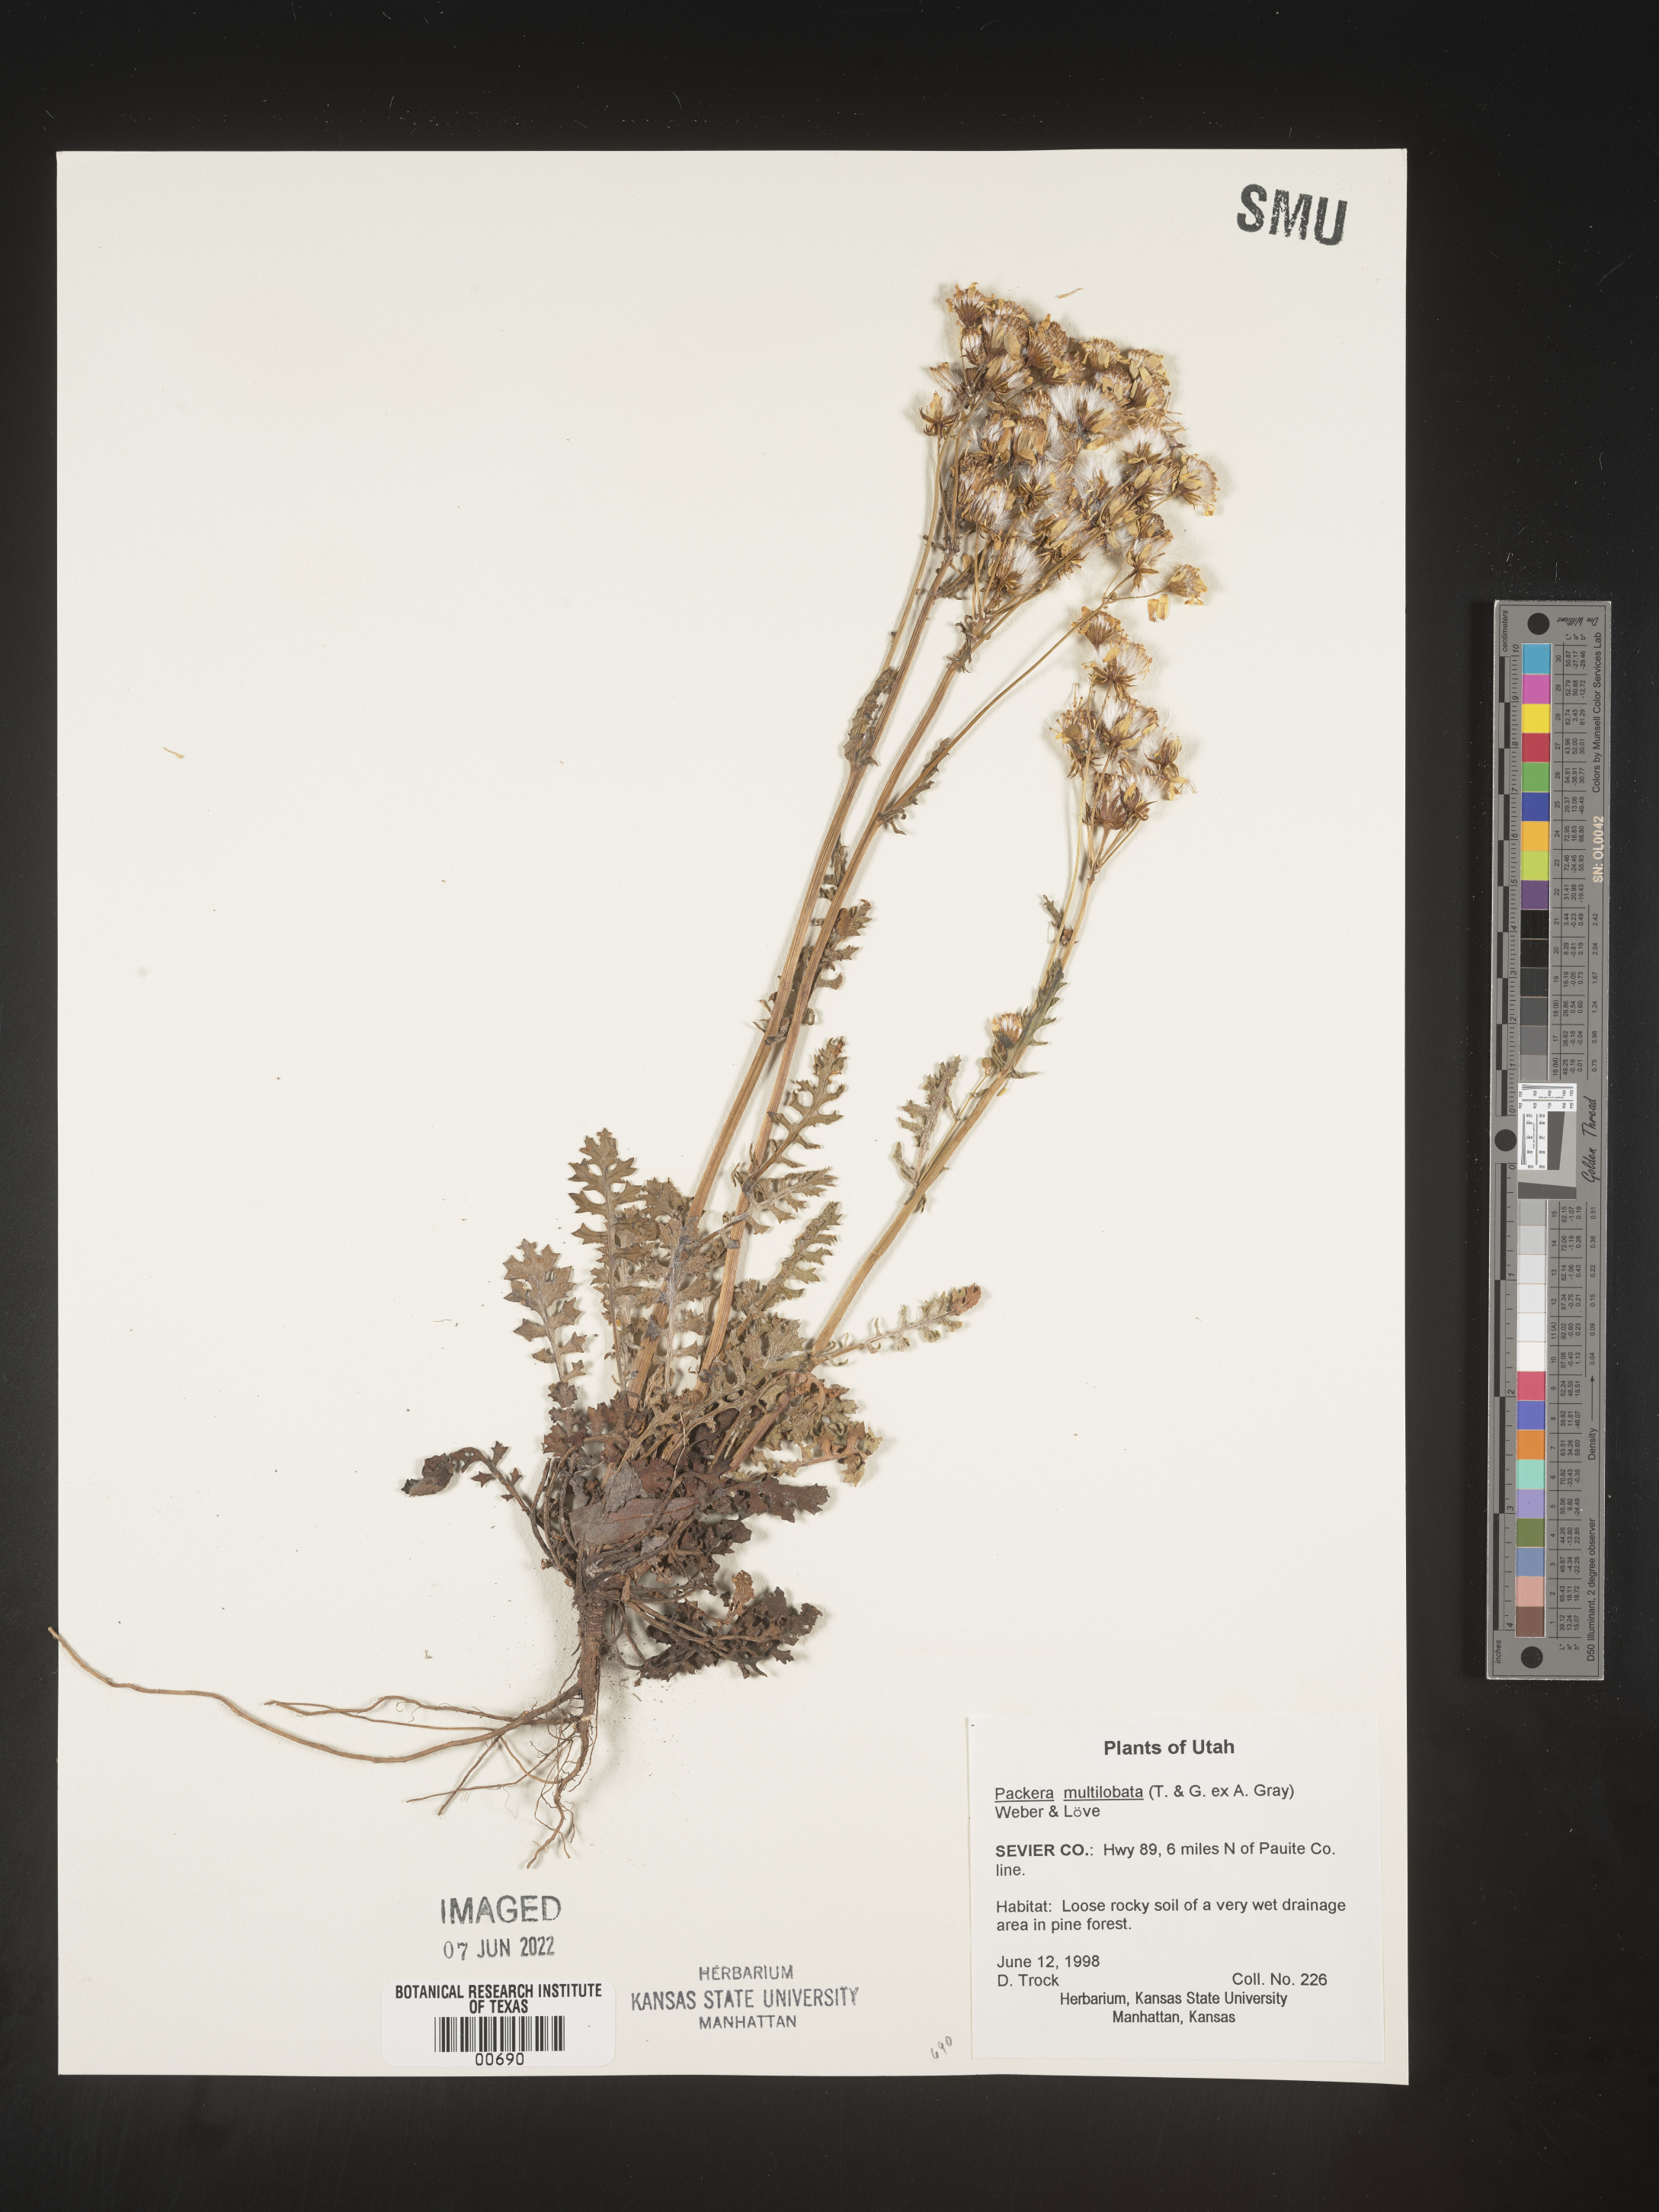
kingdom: Plantae
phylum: Tracheophyta
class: Magnoliopsida
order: Asterales
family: Asteraceae
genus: Packera
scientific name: Packera multilobata
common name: Lobe-leaf groundsel
